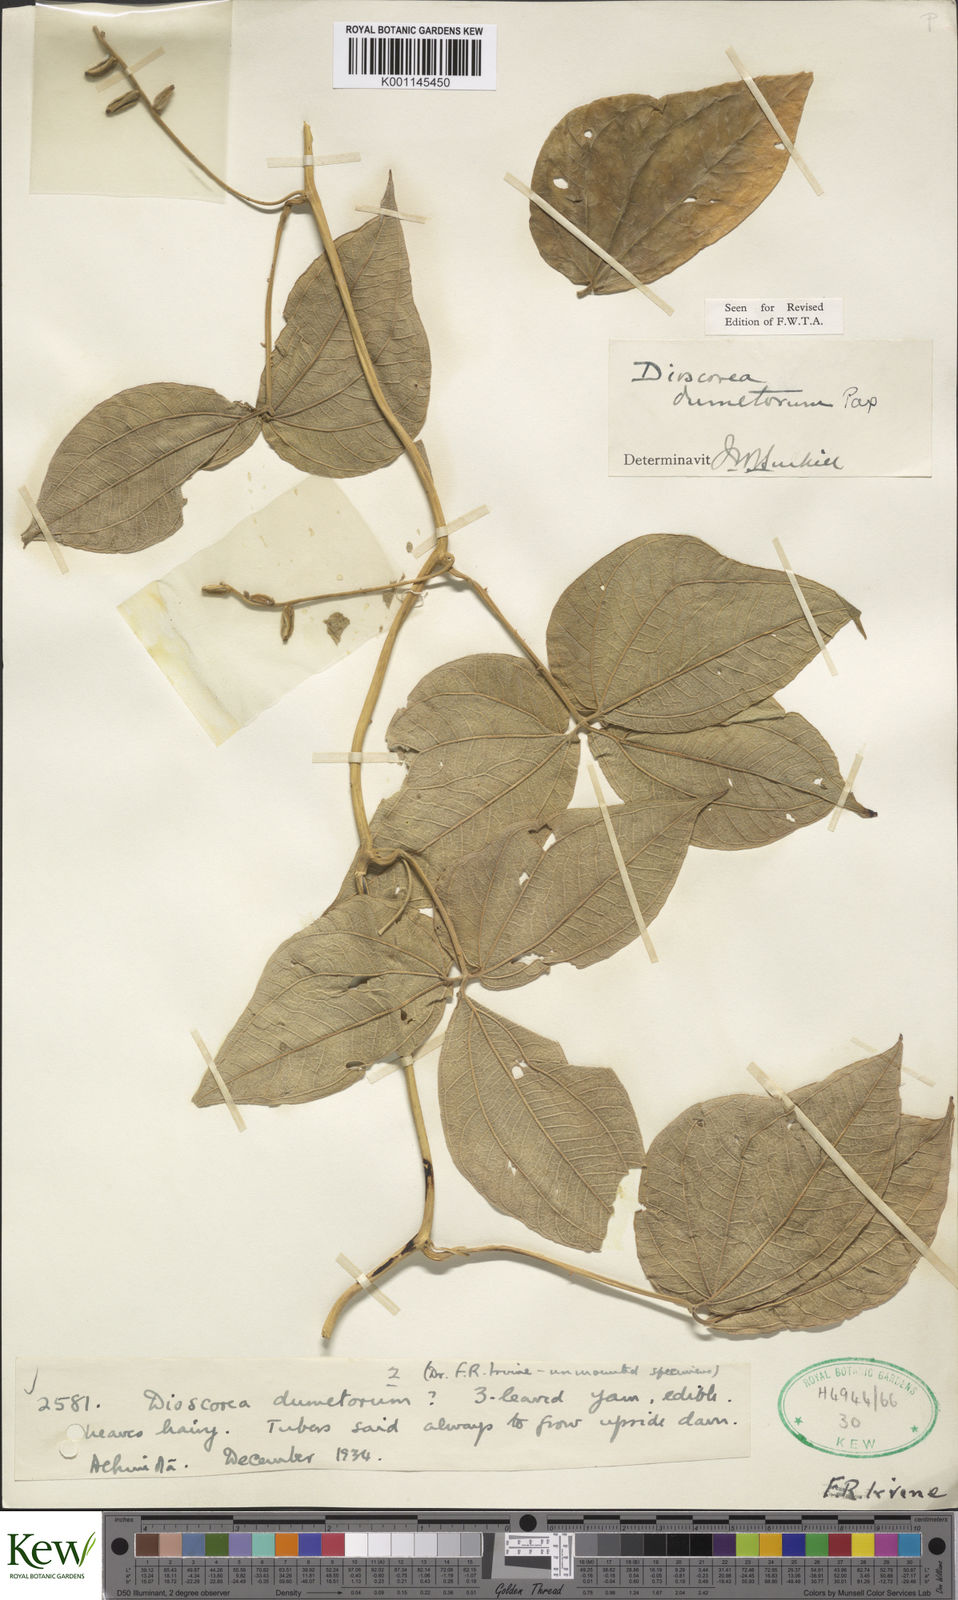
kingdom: Plantae
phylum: Tracheophyta
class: Liliopsida
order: Dioscoreales
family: Dioscoreaceae
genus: Dioscorea
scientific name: Dioscorea dumetorum
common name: African bitter yam
